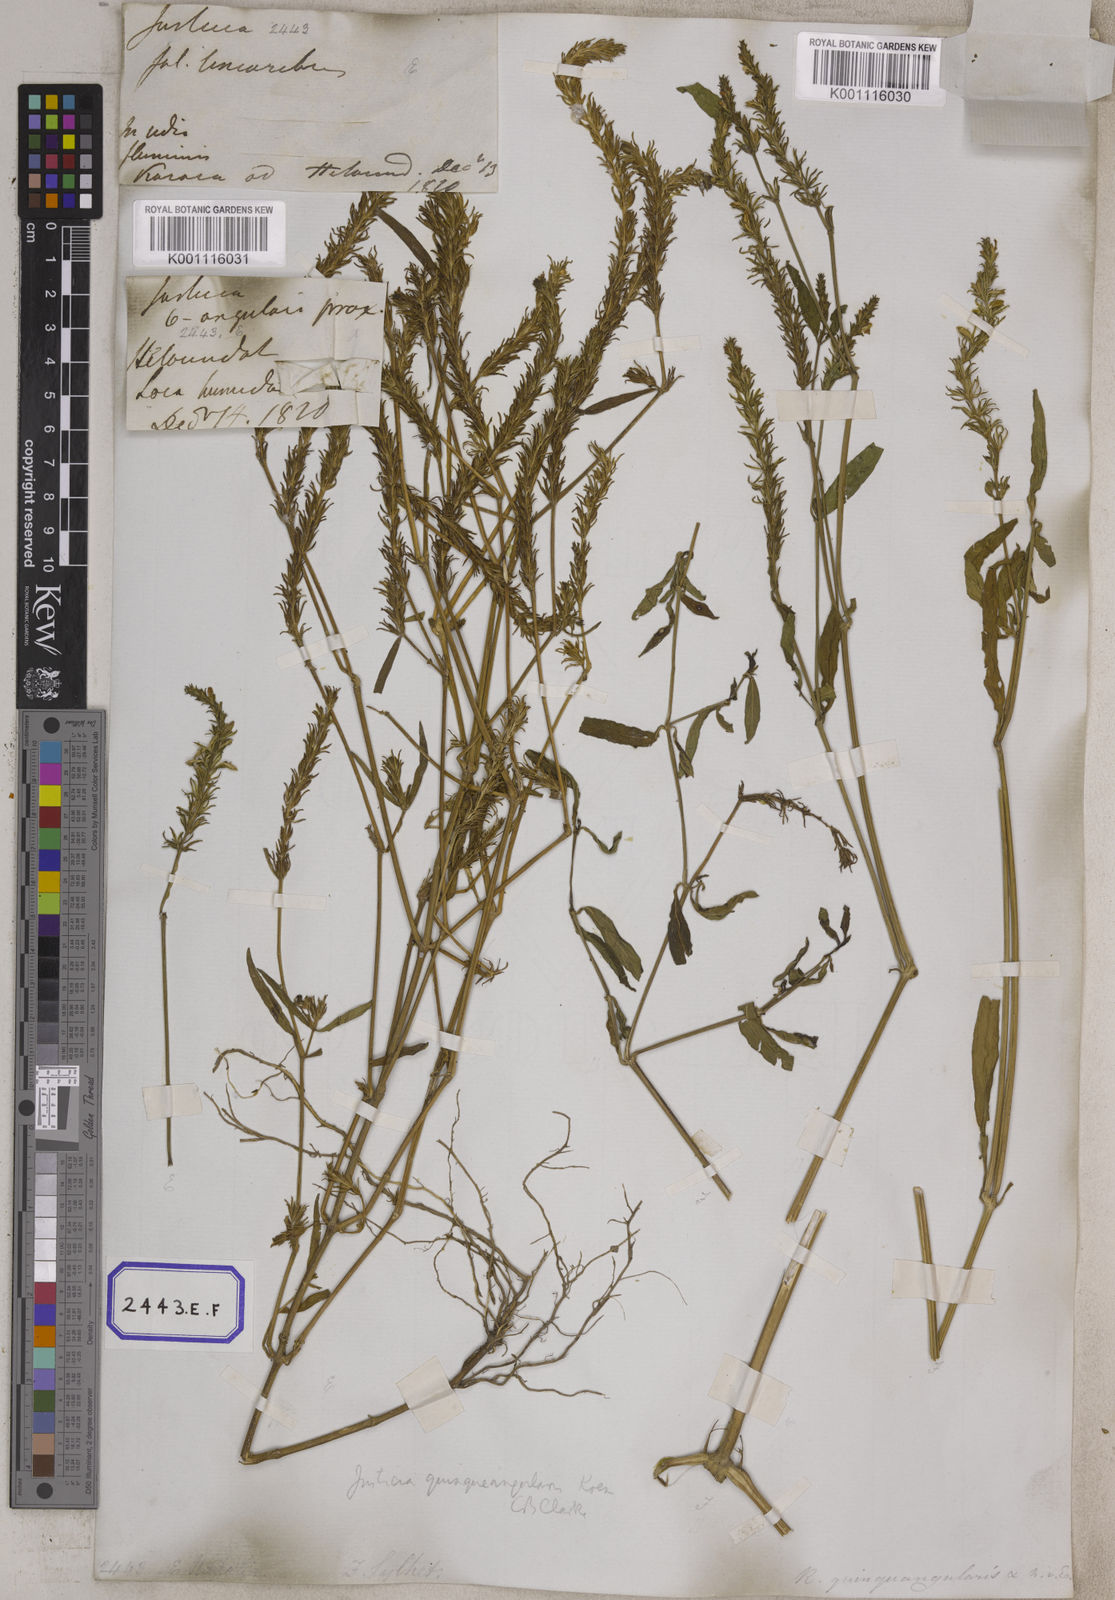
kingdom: Plantae
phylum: Tracheophyta
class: Magnoliopsida
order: Lamiales
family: Acanthaceae
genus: Rostellularia
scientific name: Rostellularia diffusa
